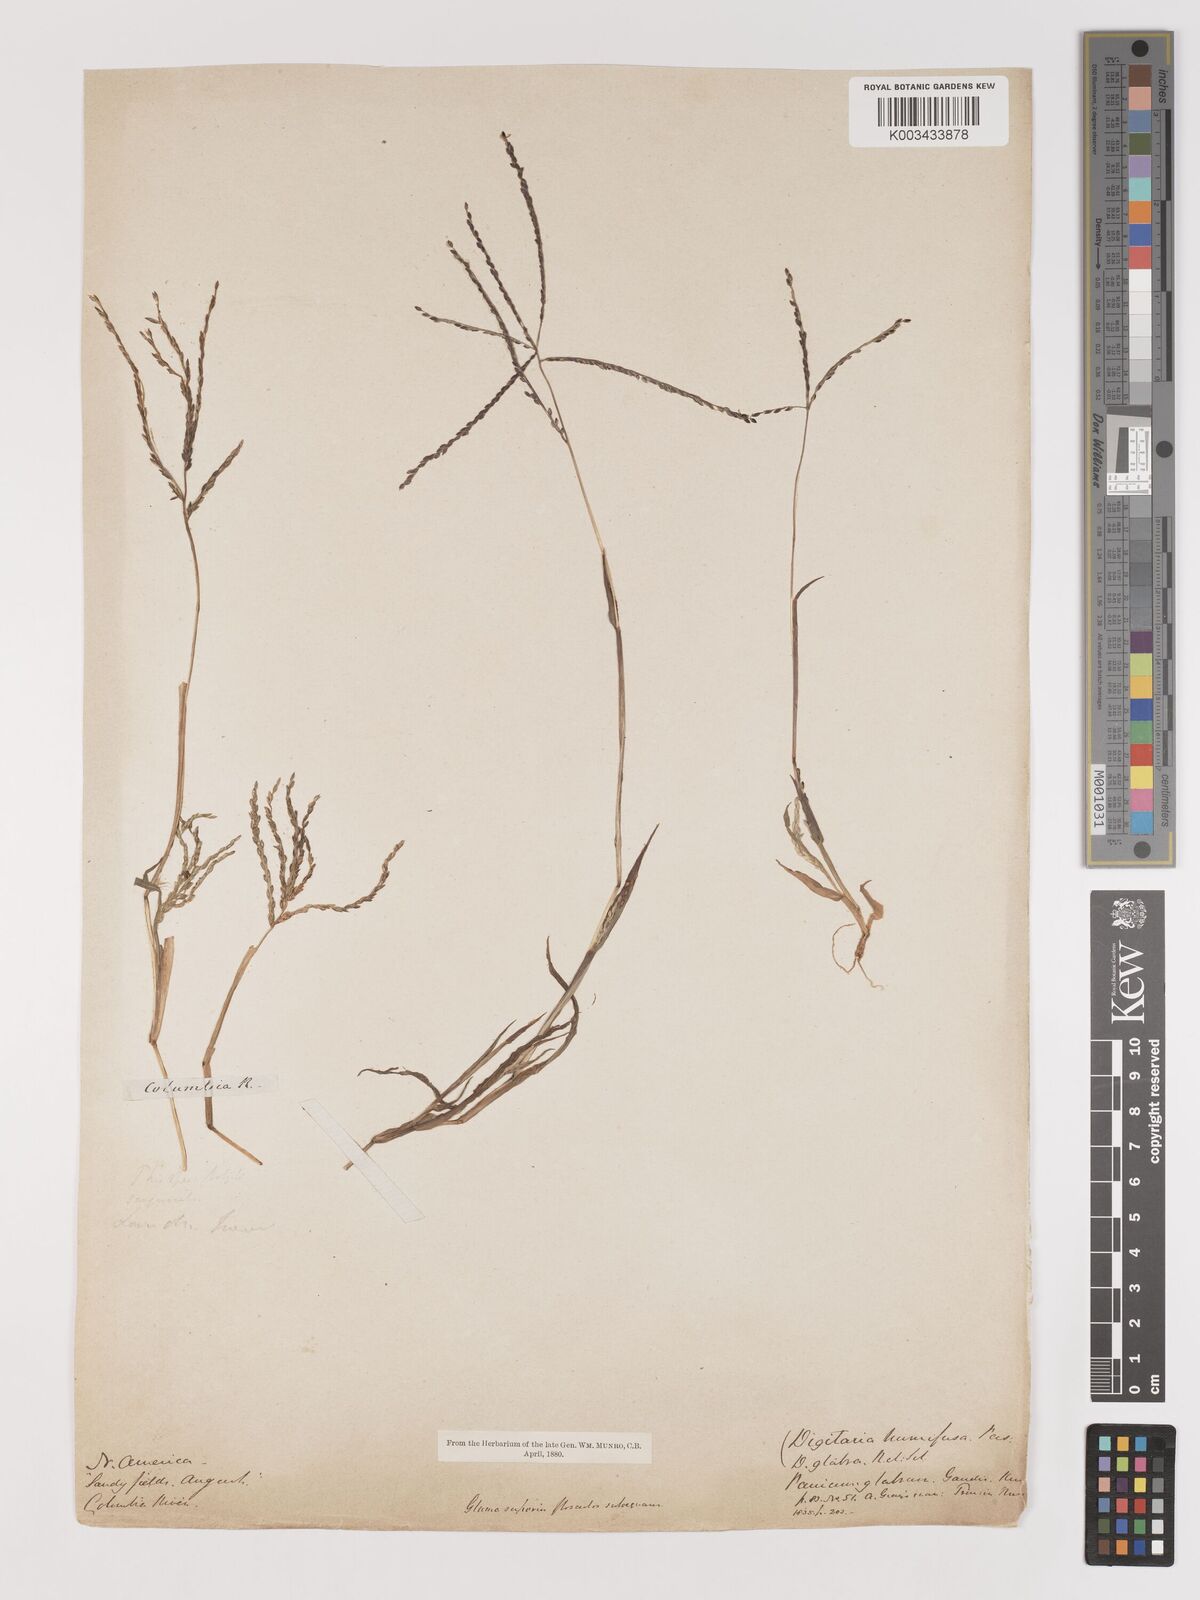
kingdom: Plantae
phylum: Tracheophyta
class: Liliopsida
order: Poales
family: Poaceae
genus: Digitaria
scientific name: Digitaria ischaemum
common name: Smooth crabgrass
